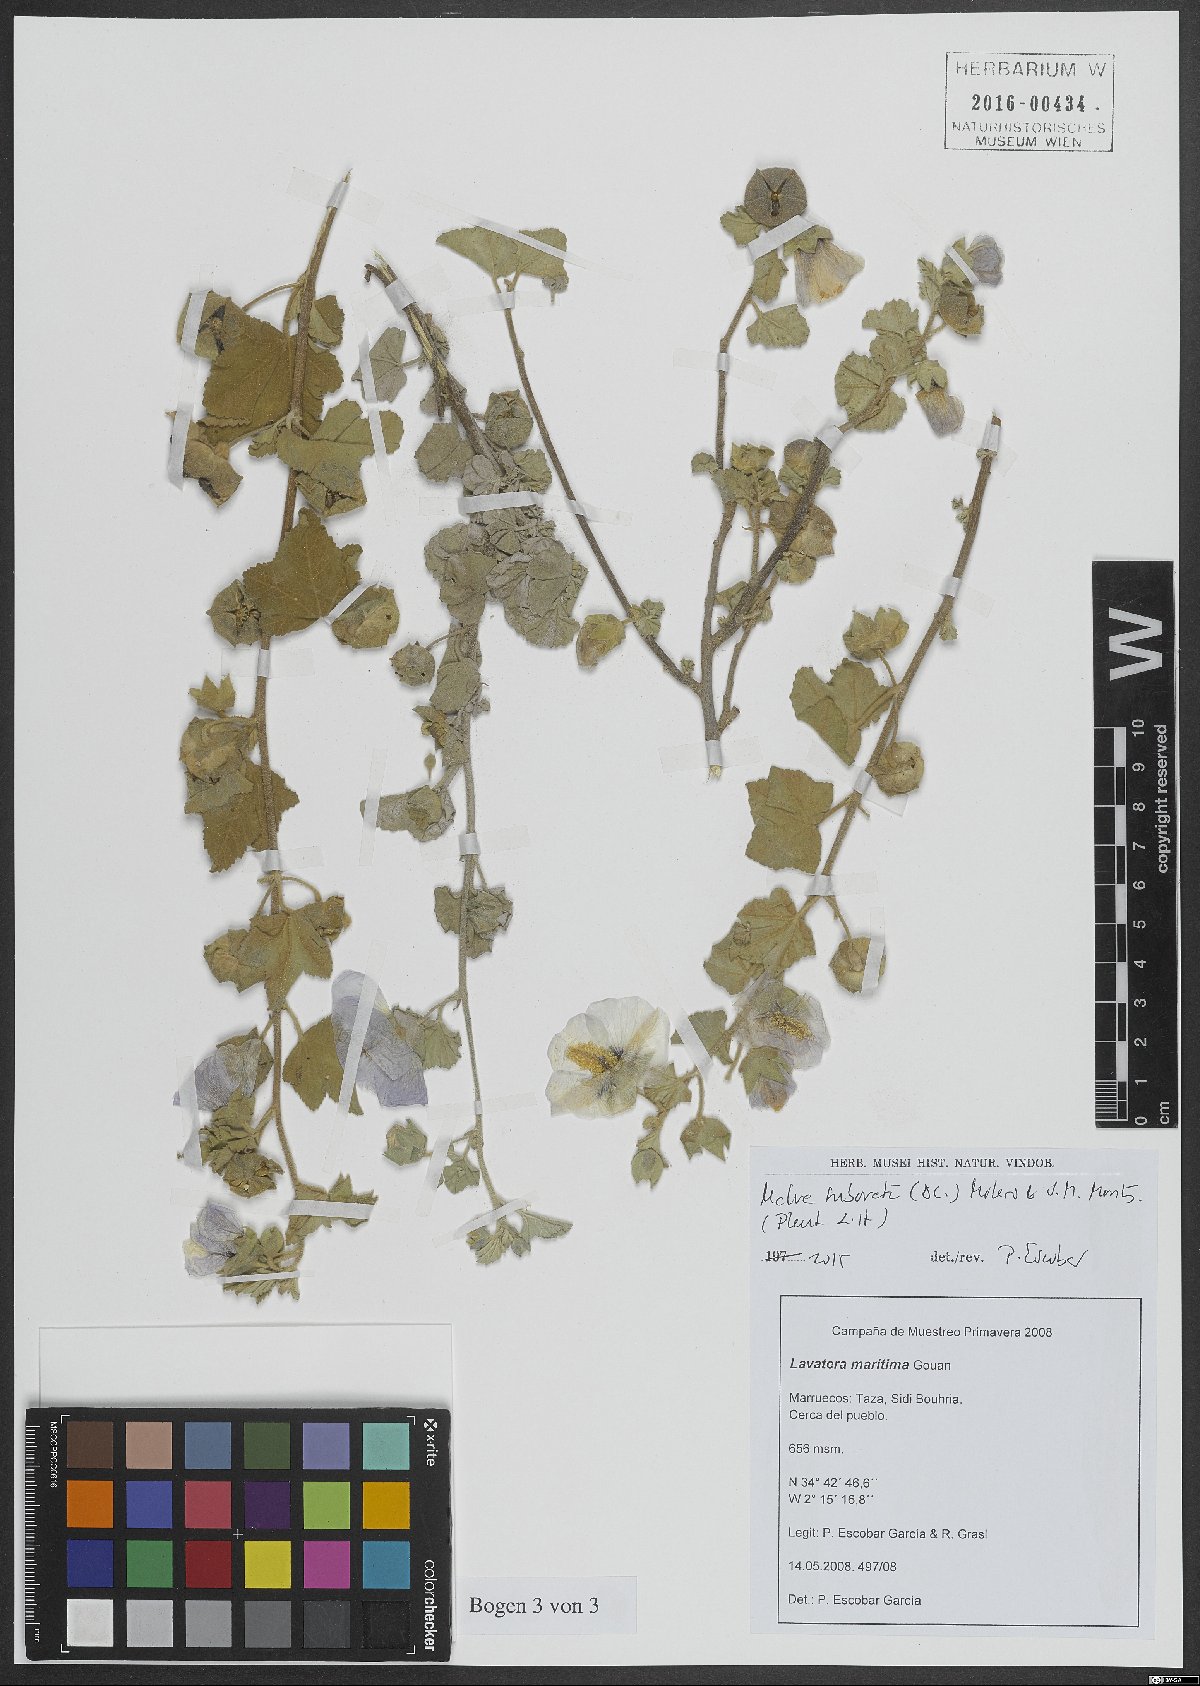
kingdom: Plantae
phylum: Tracheophyta
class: Magnoliopsida
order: Malvales
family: Malvaceae
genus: Malva
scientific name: Malva subovata
